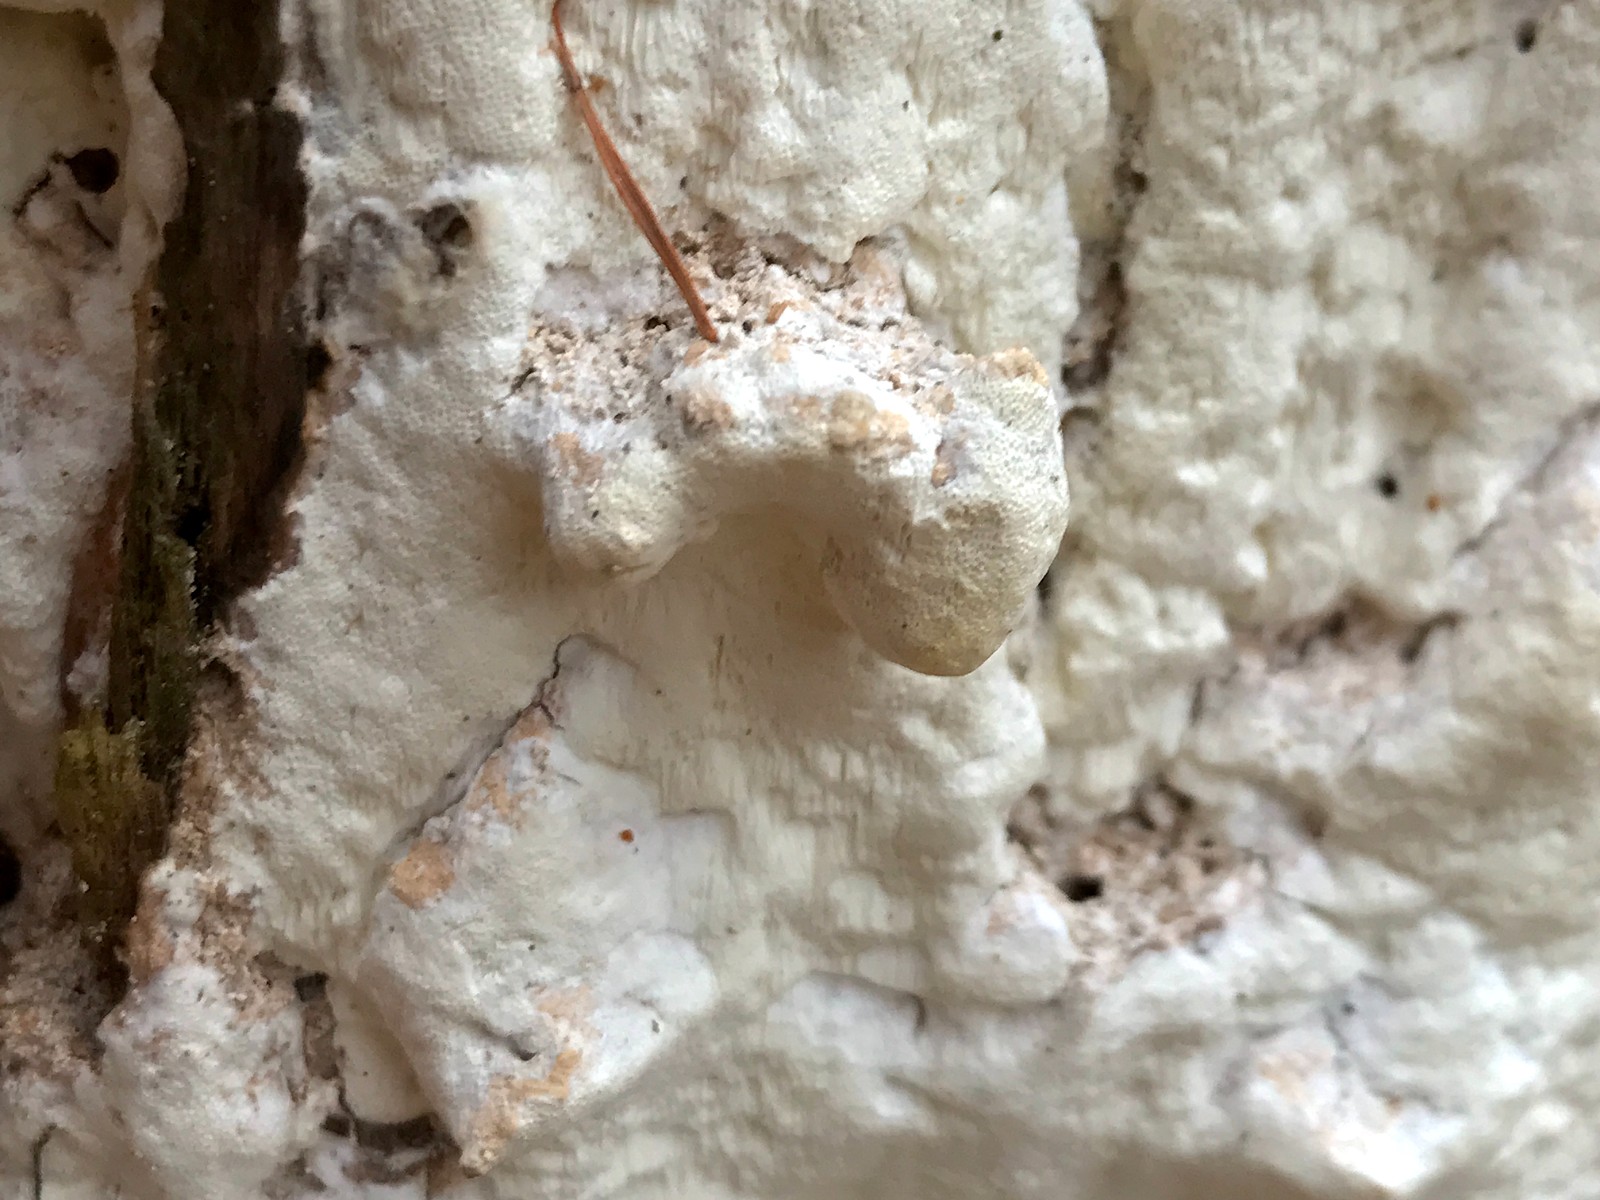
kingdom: Fungi
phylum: Basidiomycota
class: Agaricomycetes
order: Polyporales
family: Fomitopsidaceae
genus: Daedalea
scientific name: Daedalea xantha
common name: gul sejporesvamp
